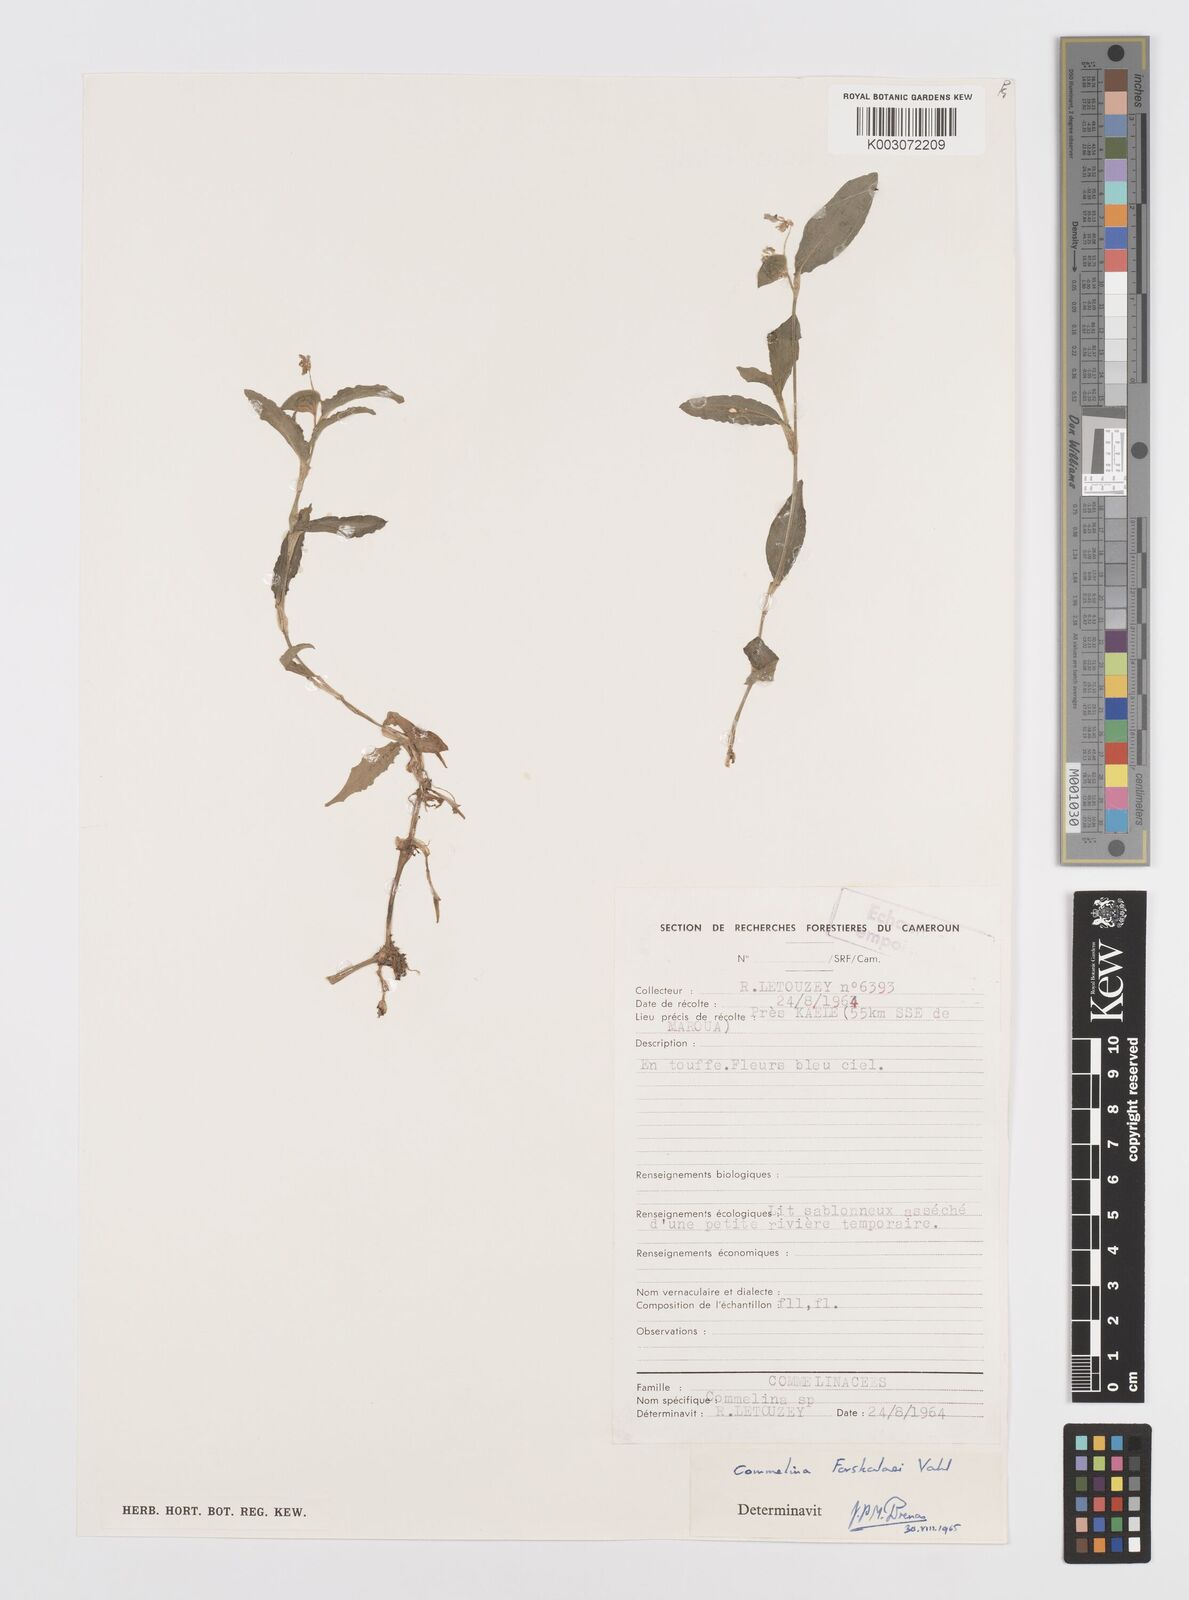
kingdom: Plantae
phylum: Tracheophyta
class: Liliopsida
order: Commelinales
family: Commelinaceae
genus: Commelina
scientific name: Commelina forskaolii
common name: Rat's ear
